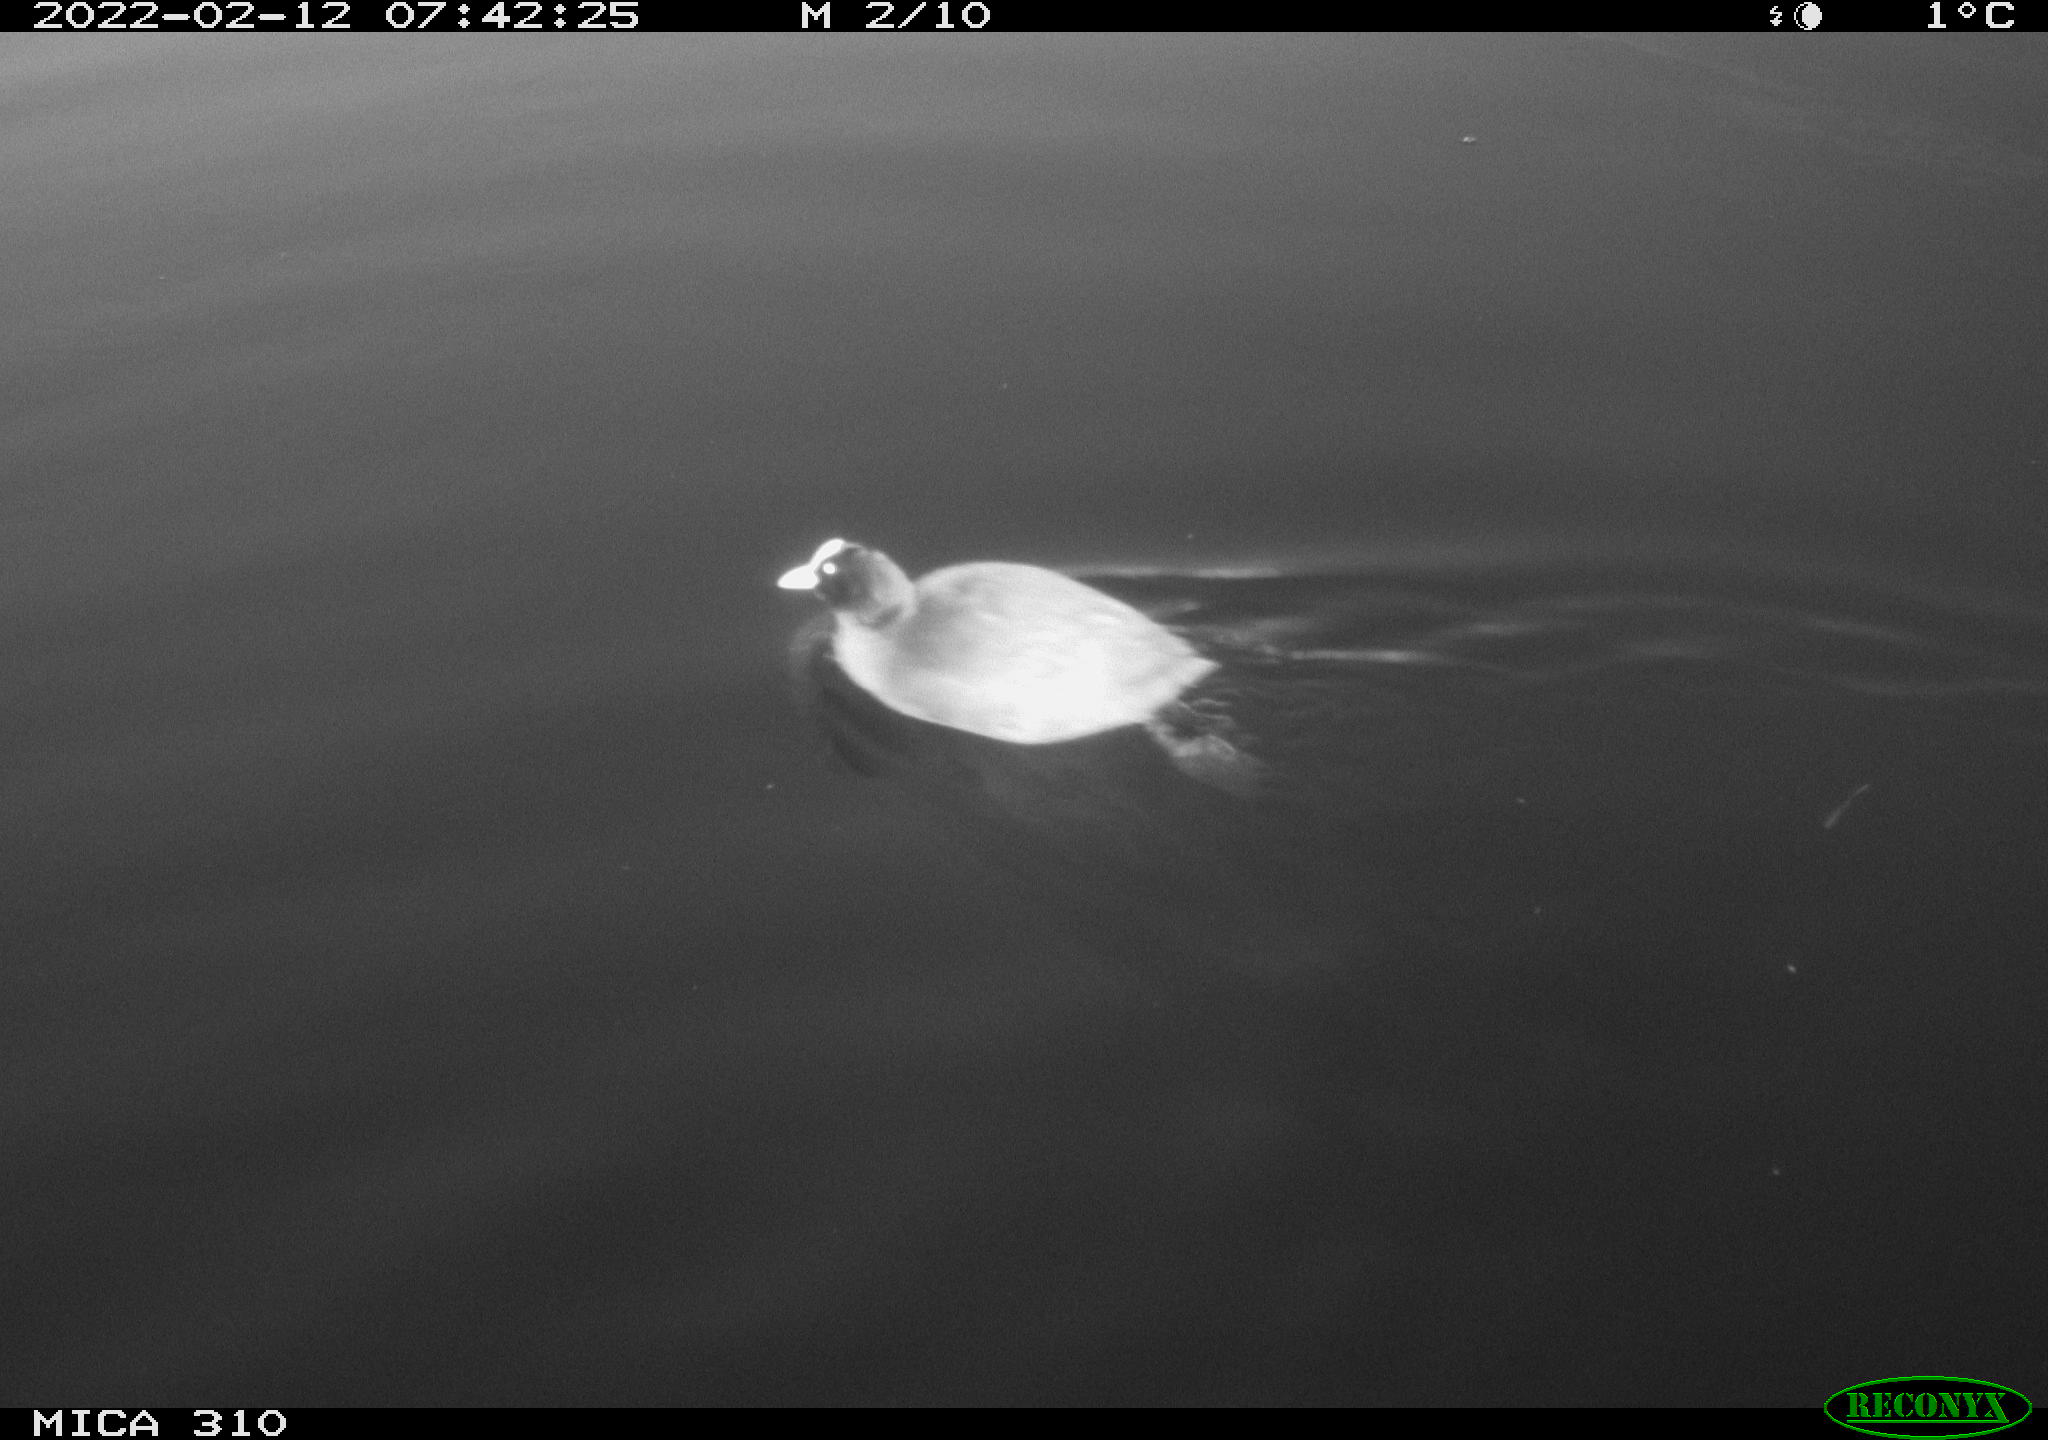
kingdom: Animalia
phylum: Chordata
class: Aves
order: Gruiformes
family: Rallidae
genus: Fulica
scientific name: Fulica atra
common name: Eurasian coot
